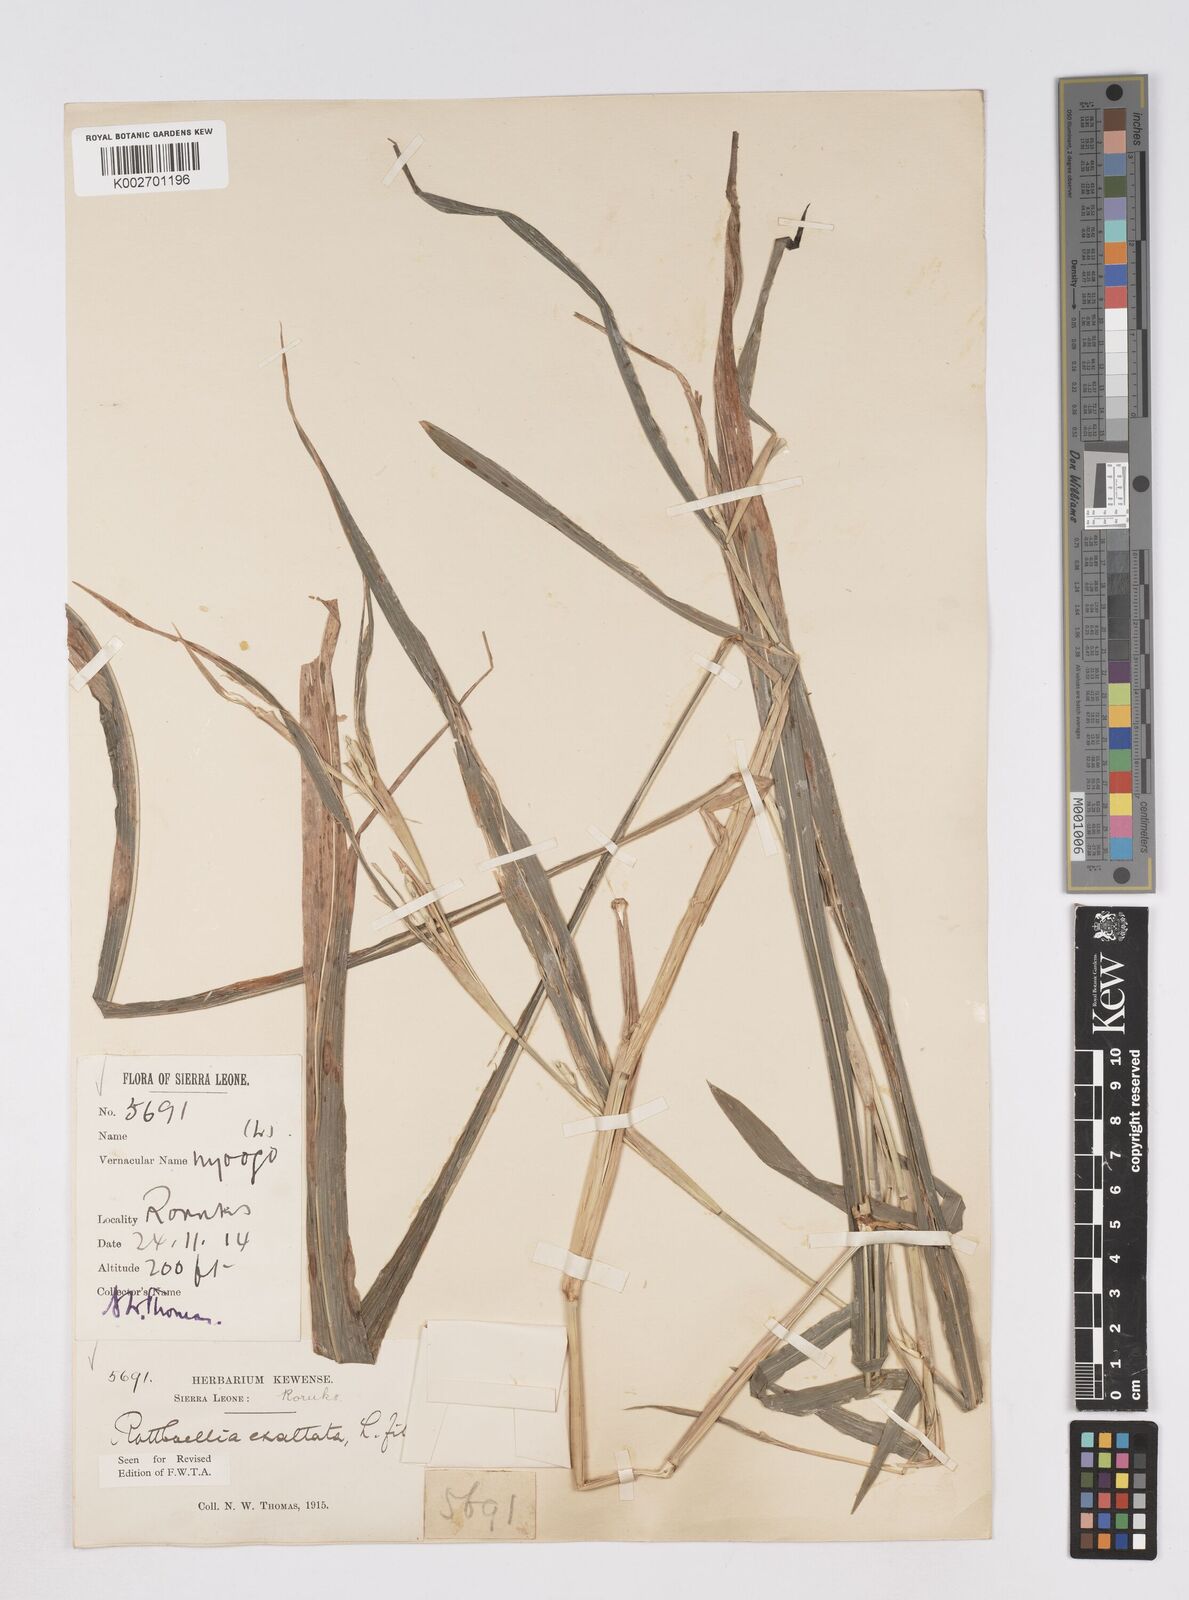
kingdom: Plantae
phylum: Tracheophyta
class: Liliopsida
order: Poales
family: Poaceae
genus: Ophiuros
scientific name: Ophiuros exaltatus
